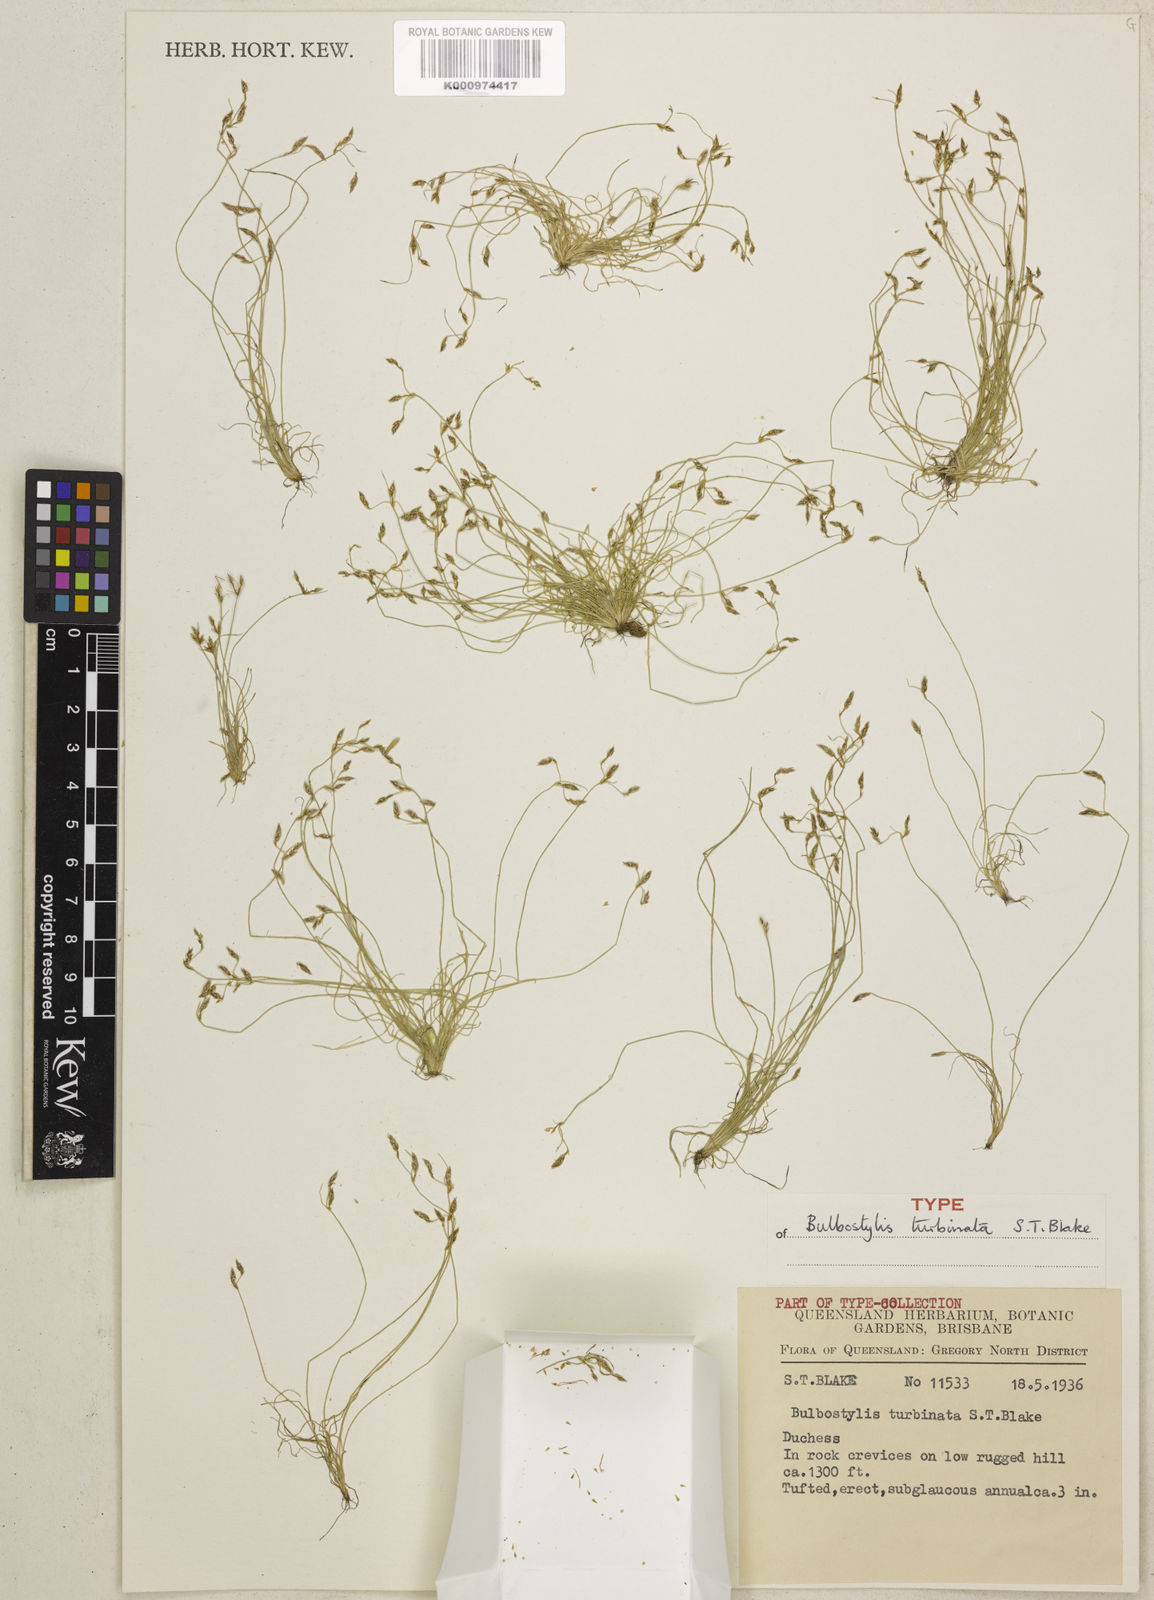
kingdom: Plantae
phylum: Tracheophyta
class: Liliopsida
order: Poales
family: Cyperaceae
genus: Bulbostylis
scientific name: Bulbostylis turbinata
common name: Hair sedge
